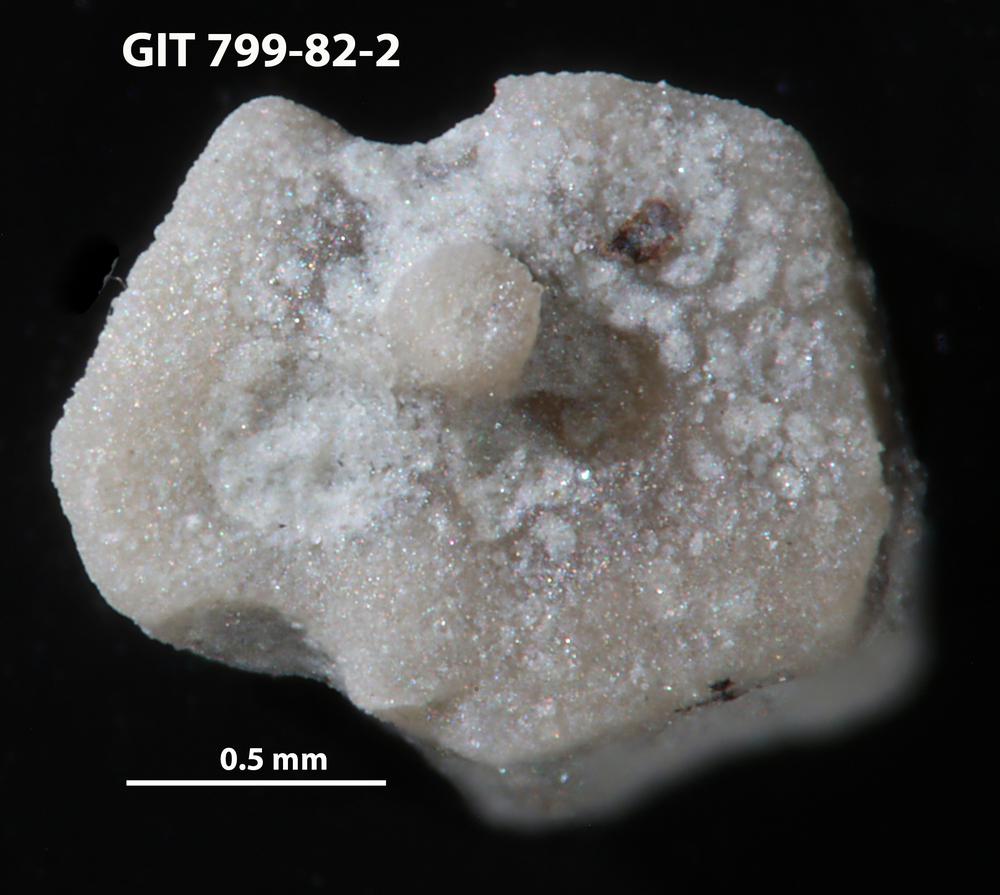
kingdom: Animalia
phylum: Echinodermata
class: Echinoidea
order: Bothriocidaroida
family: Bothriocidaridae
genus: Neobothriocidaris
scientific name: Neobothriocidaris
